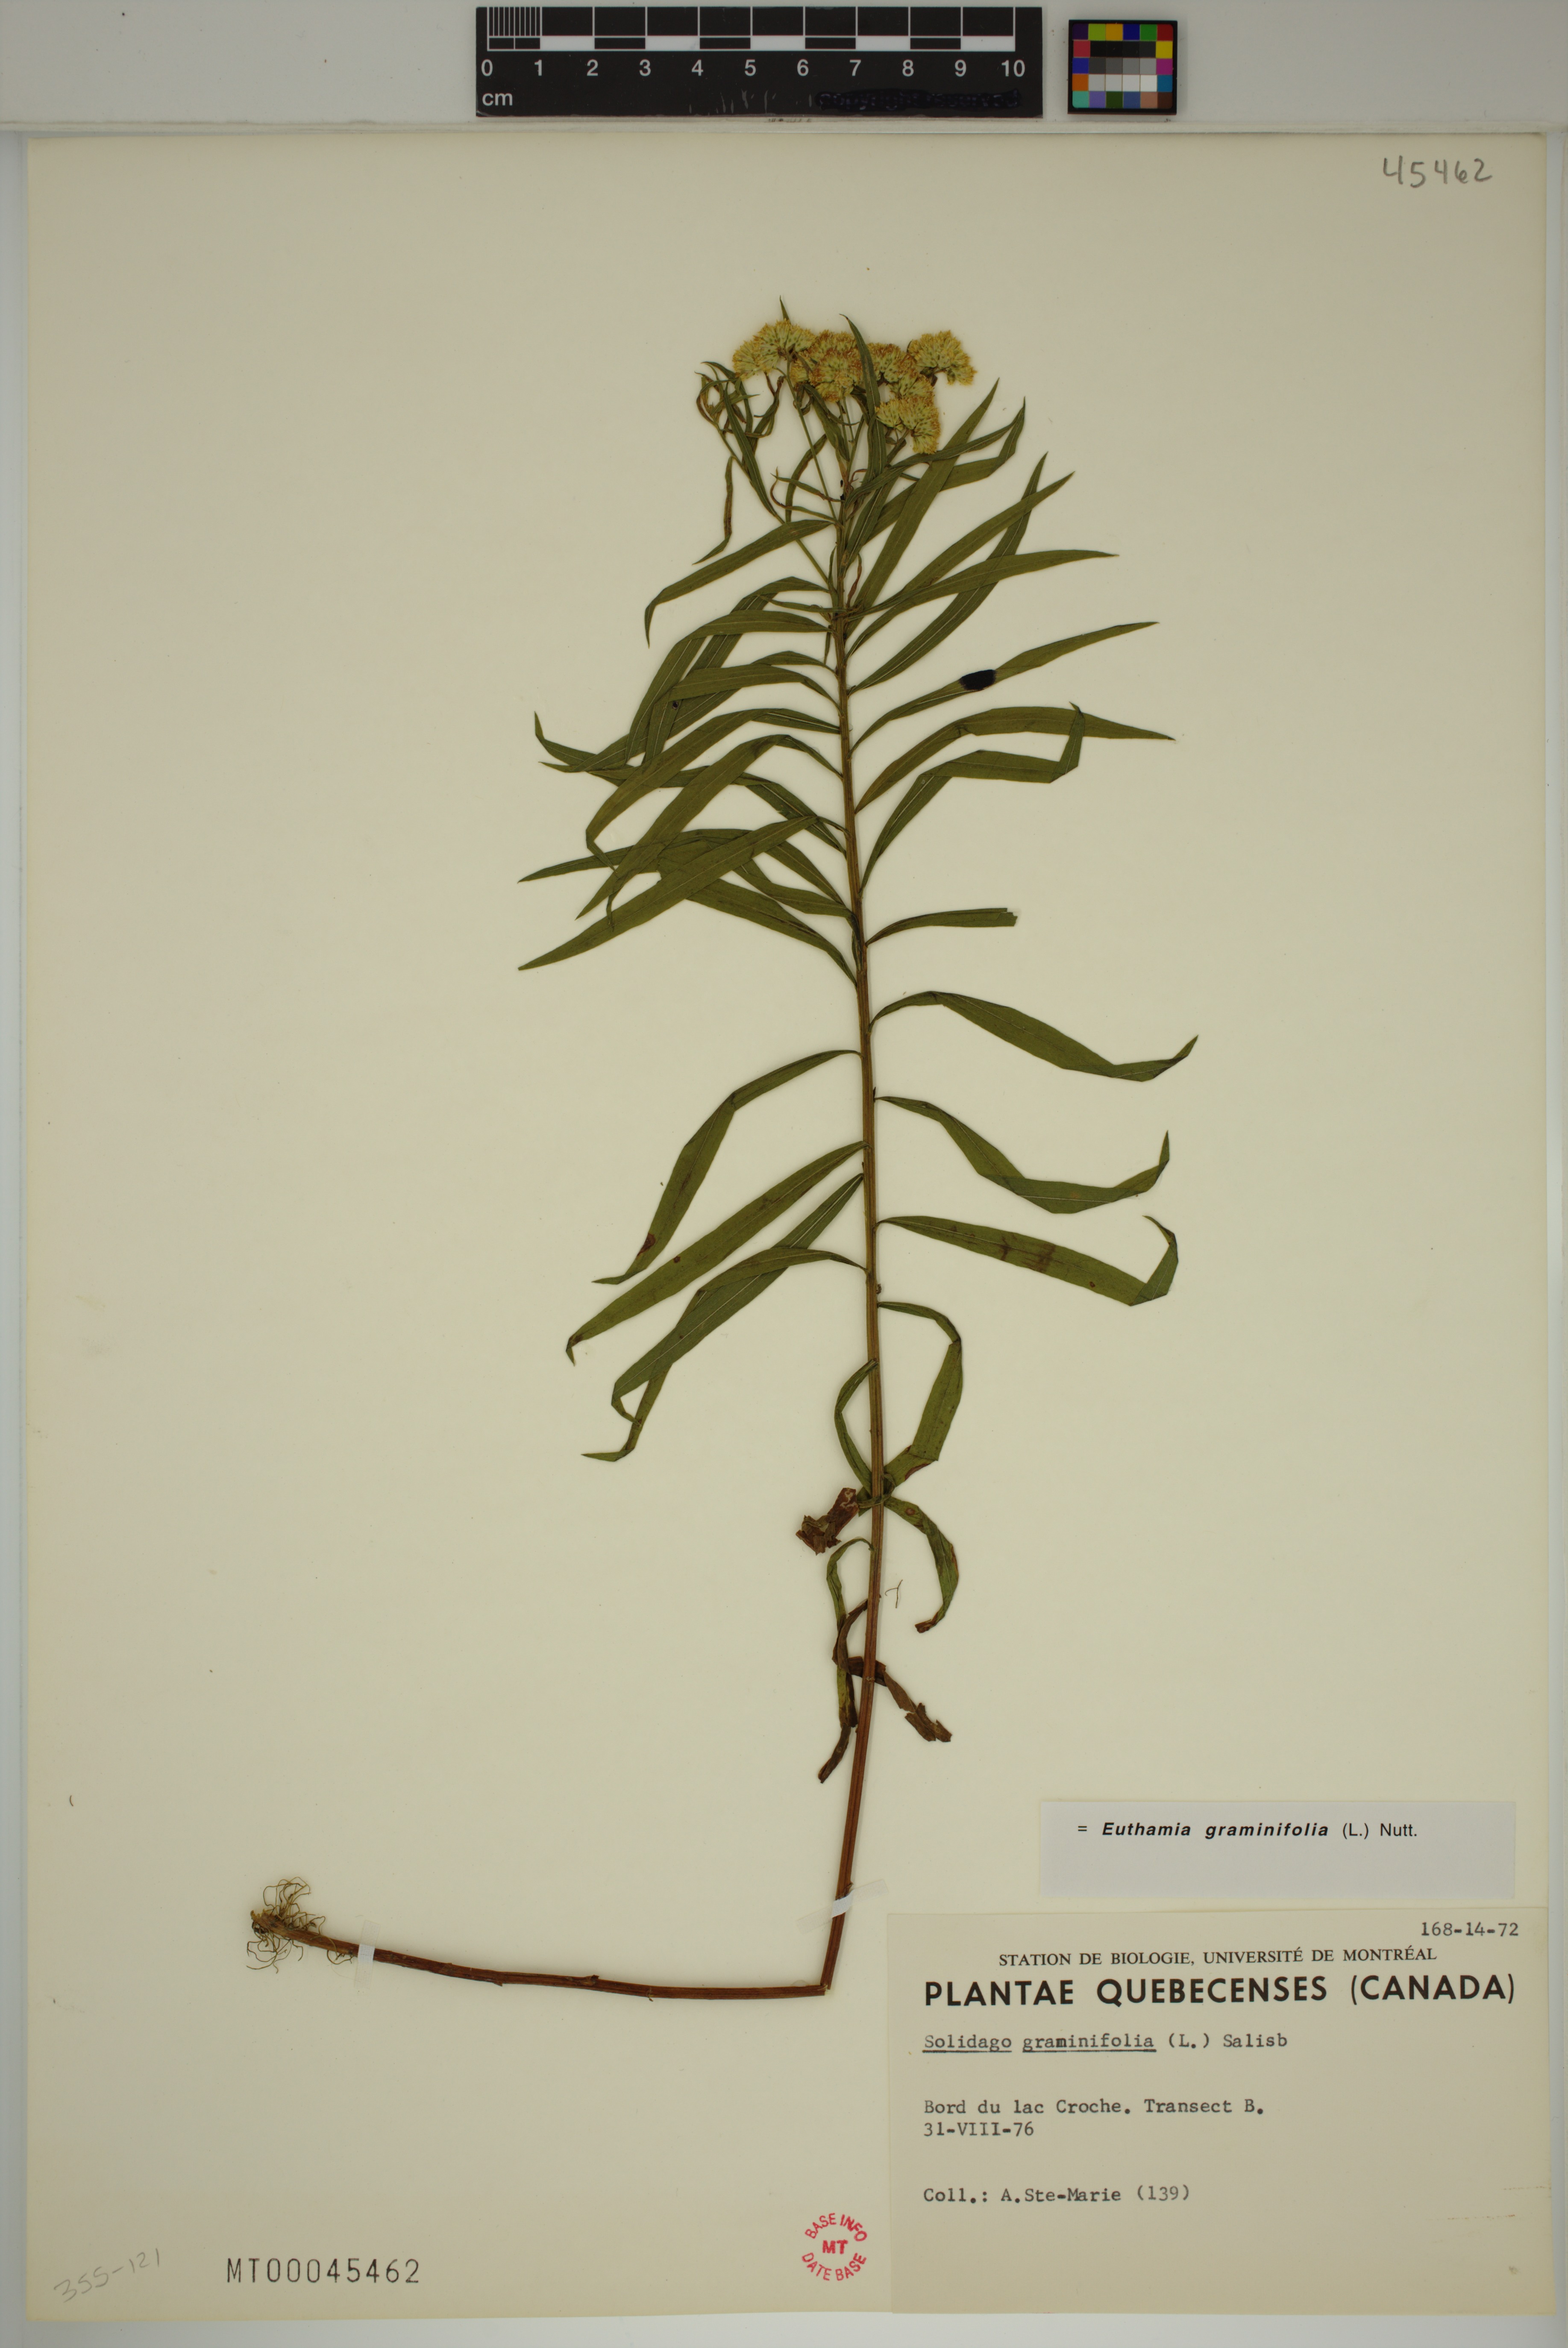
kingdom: Plantae
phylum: Tracheophyta
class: Magnoliopsida
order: Asterales
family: Asteraceae
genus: Euthamia
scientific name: Euthamia graminifolia
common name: Common goldentop
